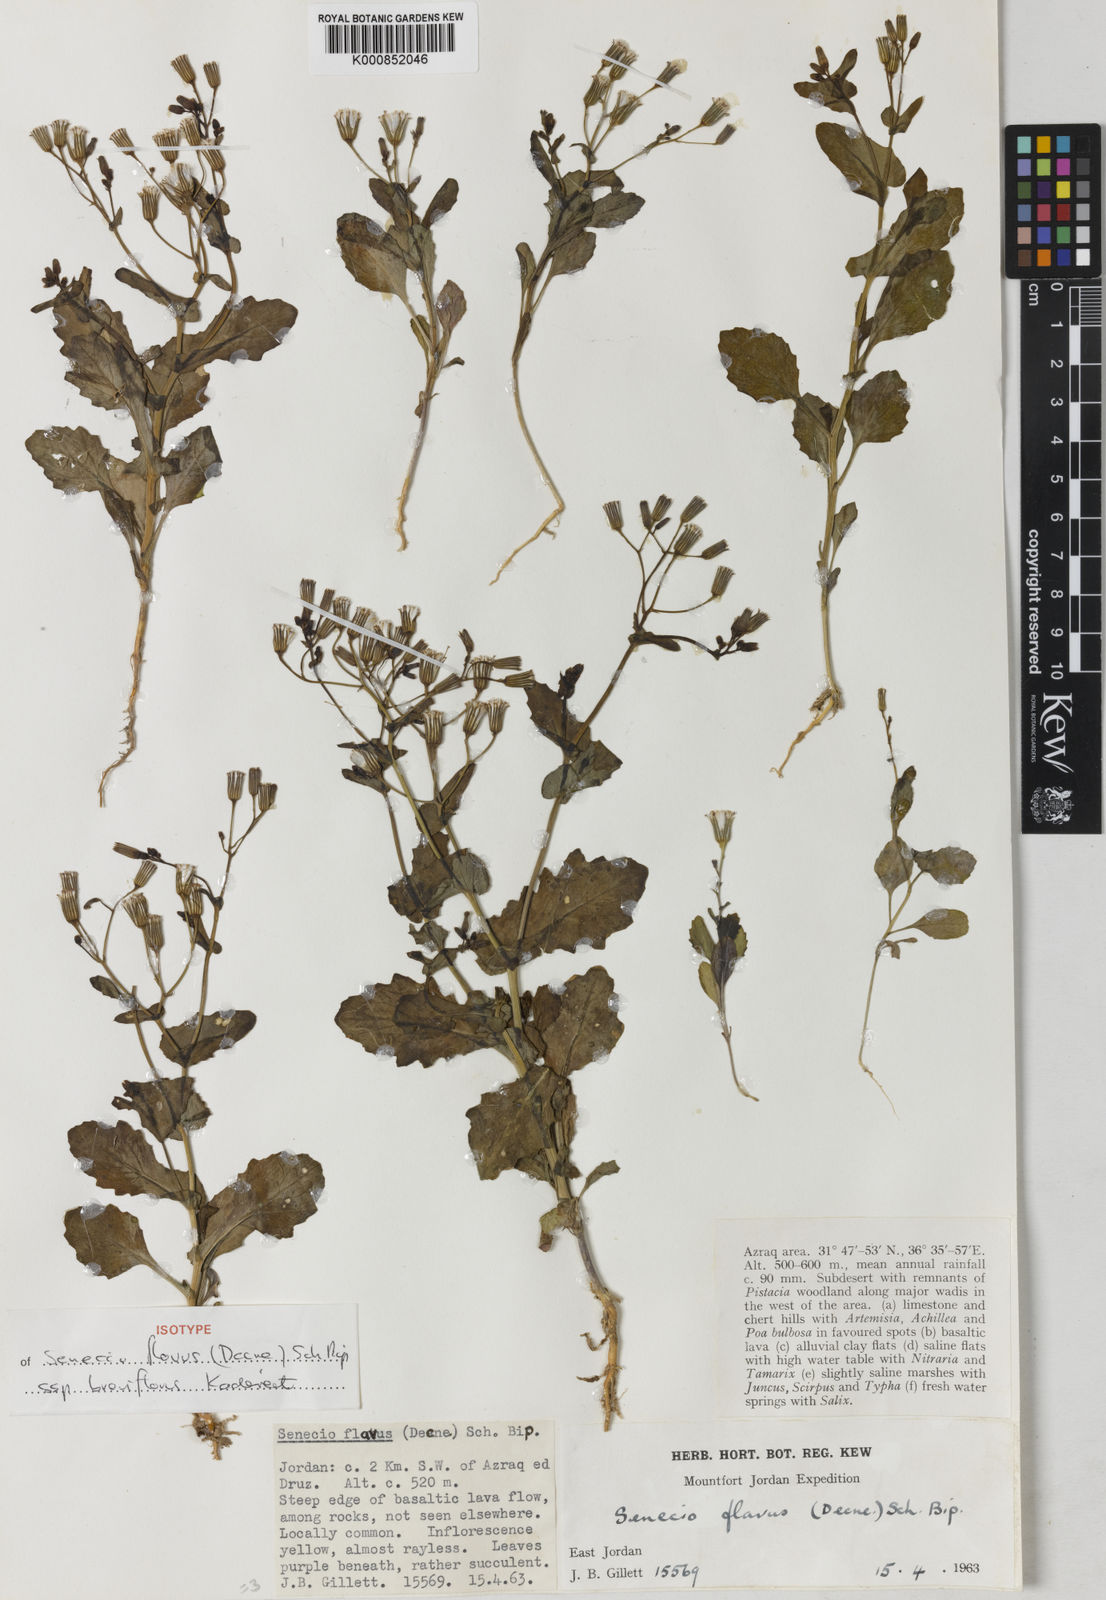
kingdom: Plantae
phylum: Tracheophyta
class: Magnoliopsida
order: Asterales
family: Asteraceae
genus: Senecio
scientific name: Senecio breviflorus
